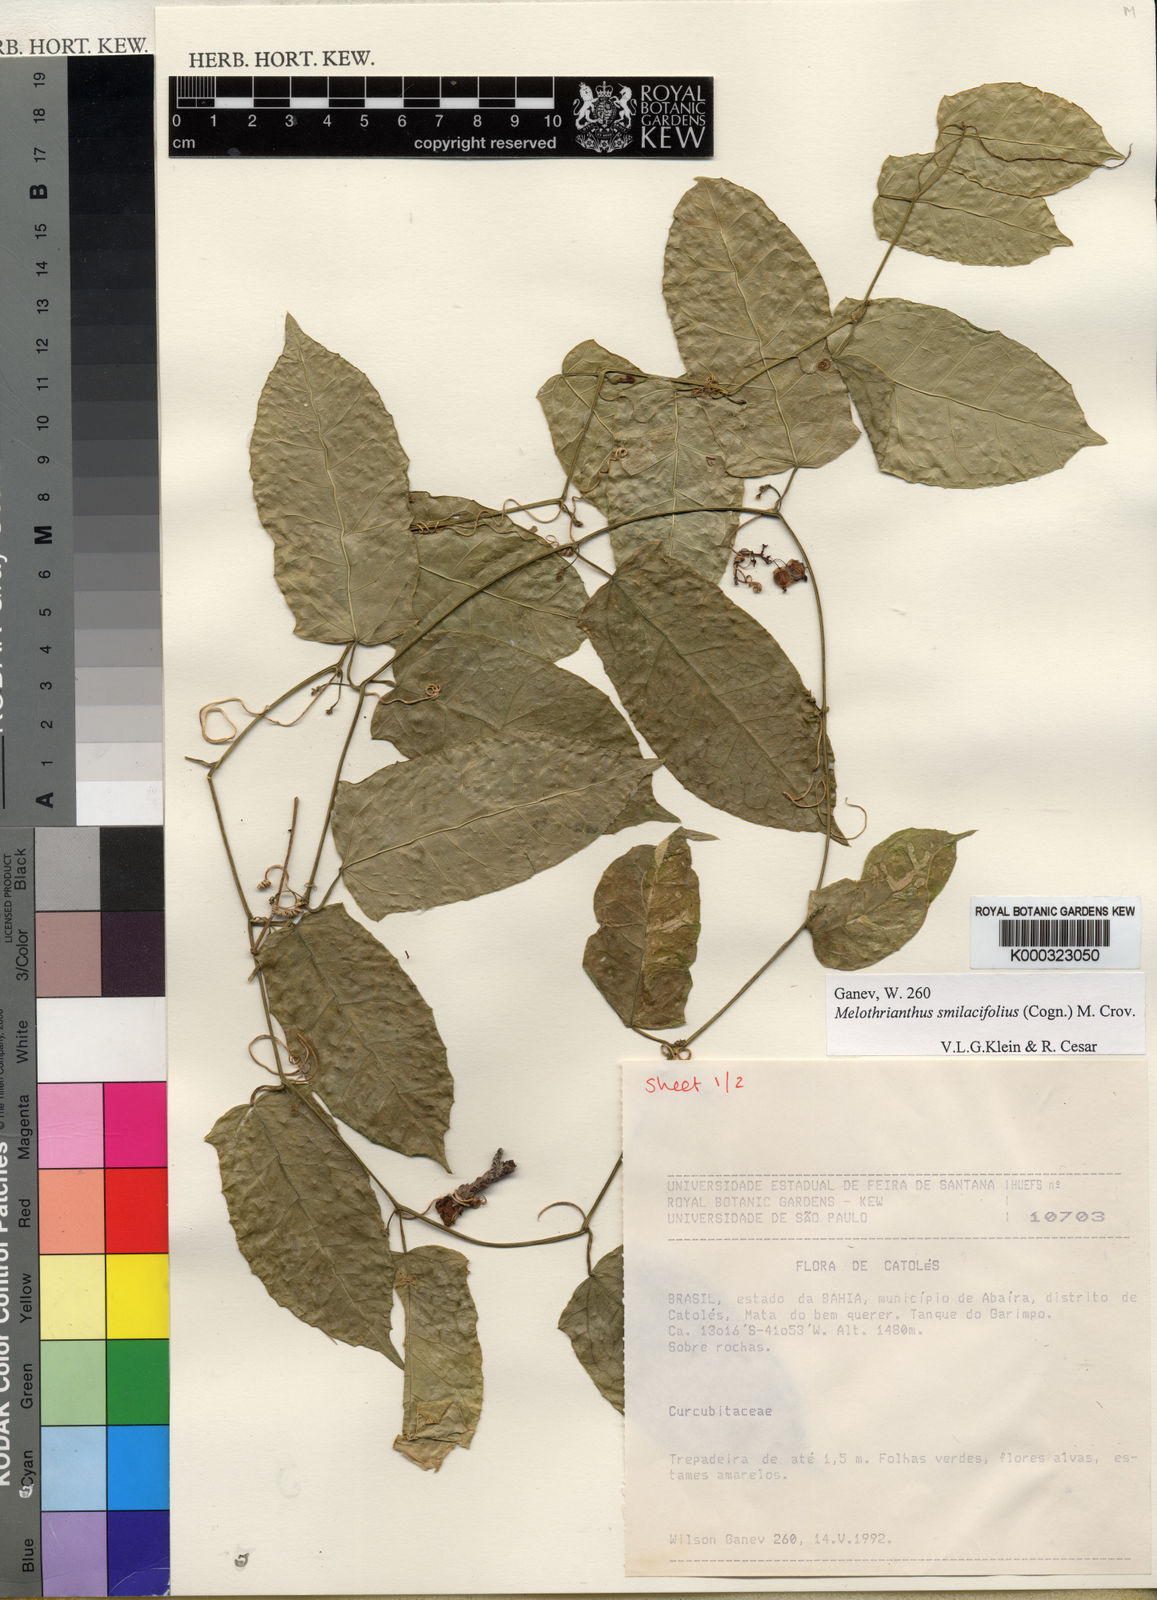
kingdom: Plantae
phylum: Tracheophyta
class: Magnoliopsida
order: Cucurbitales
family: Cucurbitaceae
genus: Apodanthera
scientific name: Apodanthera smilacifolia
